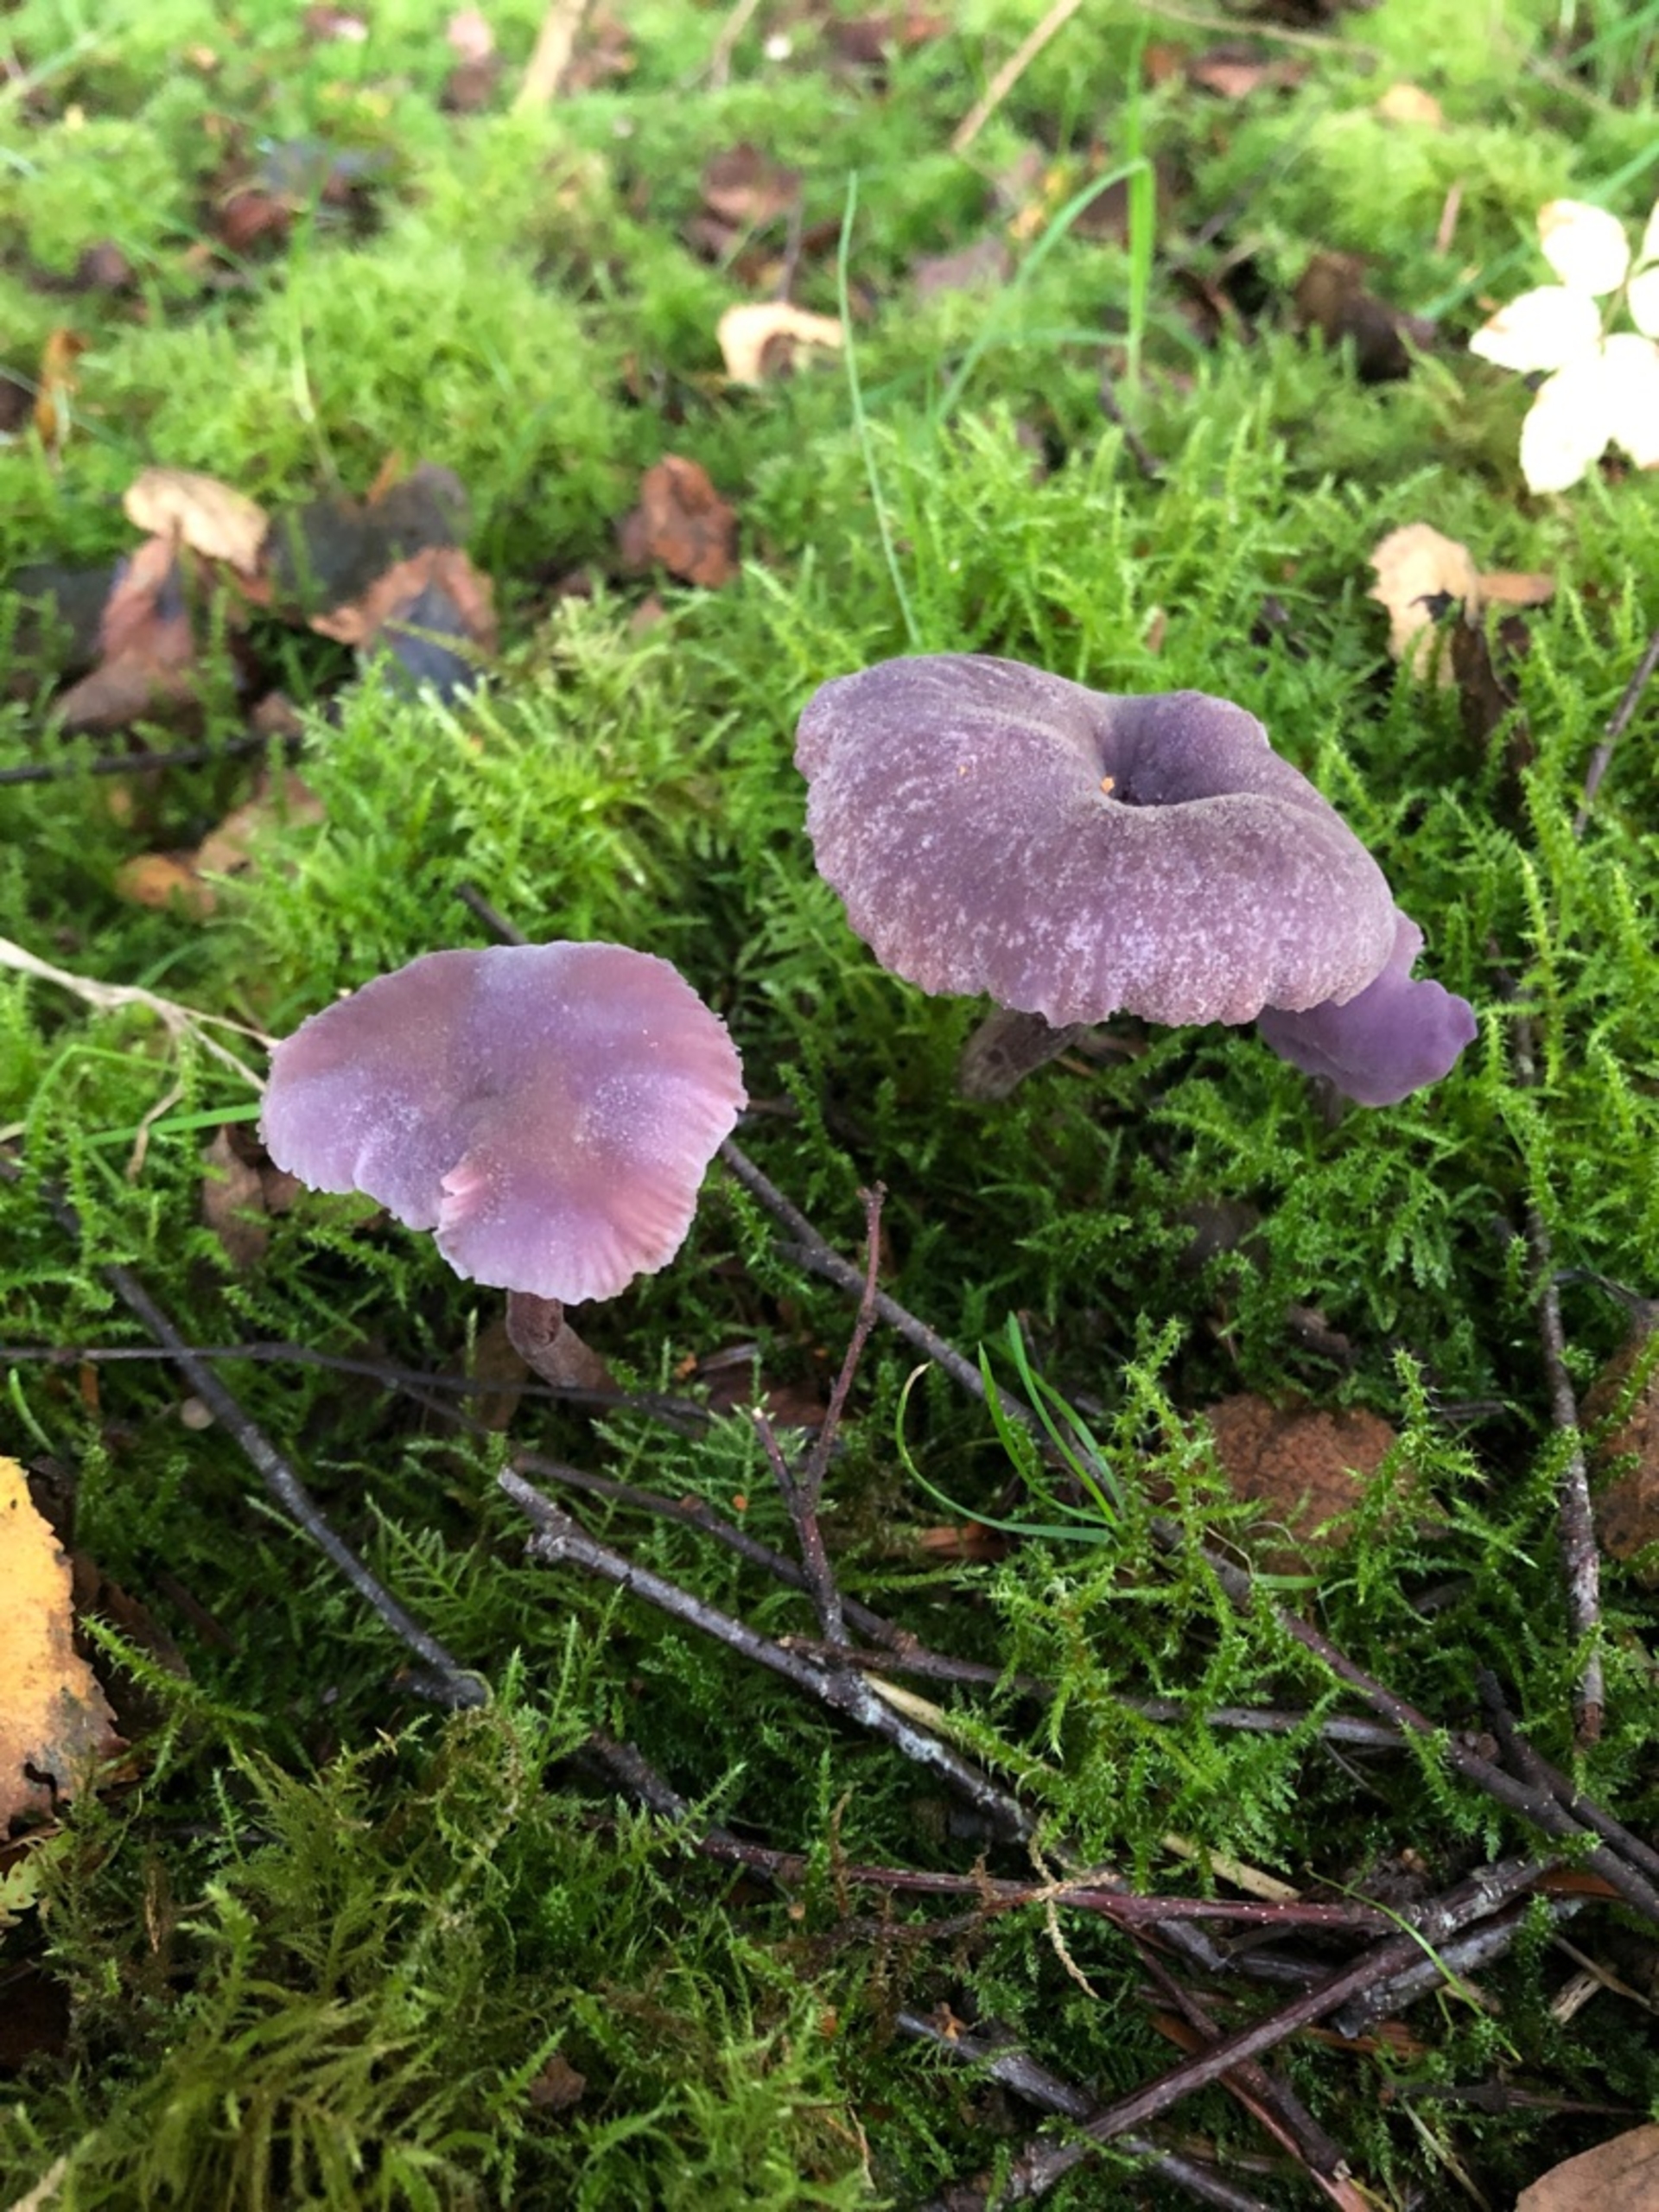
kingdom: Fungi
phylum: Basidiomycota
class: Agaricomycetes
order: Agaricales
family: Hydnangiaceae
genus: Laccaria
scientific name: Laccaria amethystina
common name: Violet ametysthat
